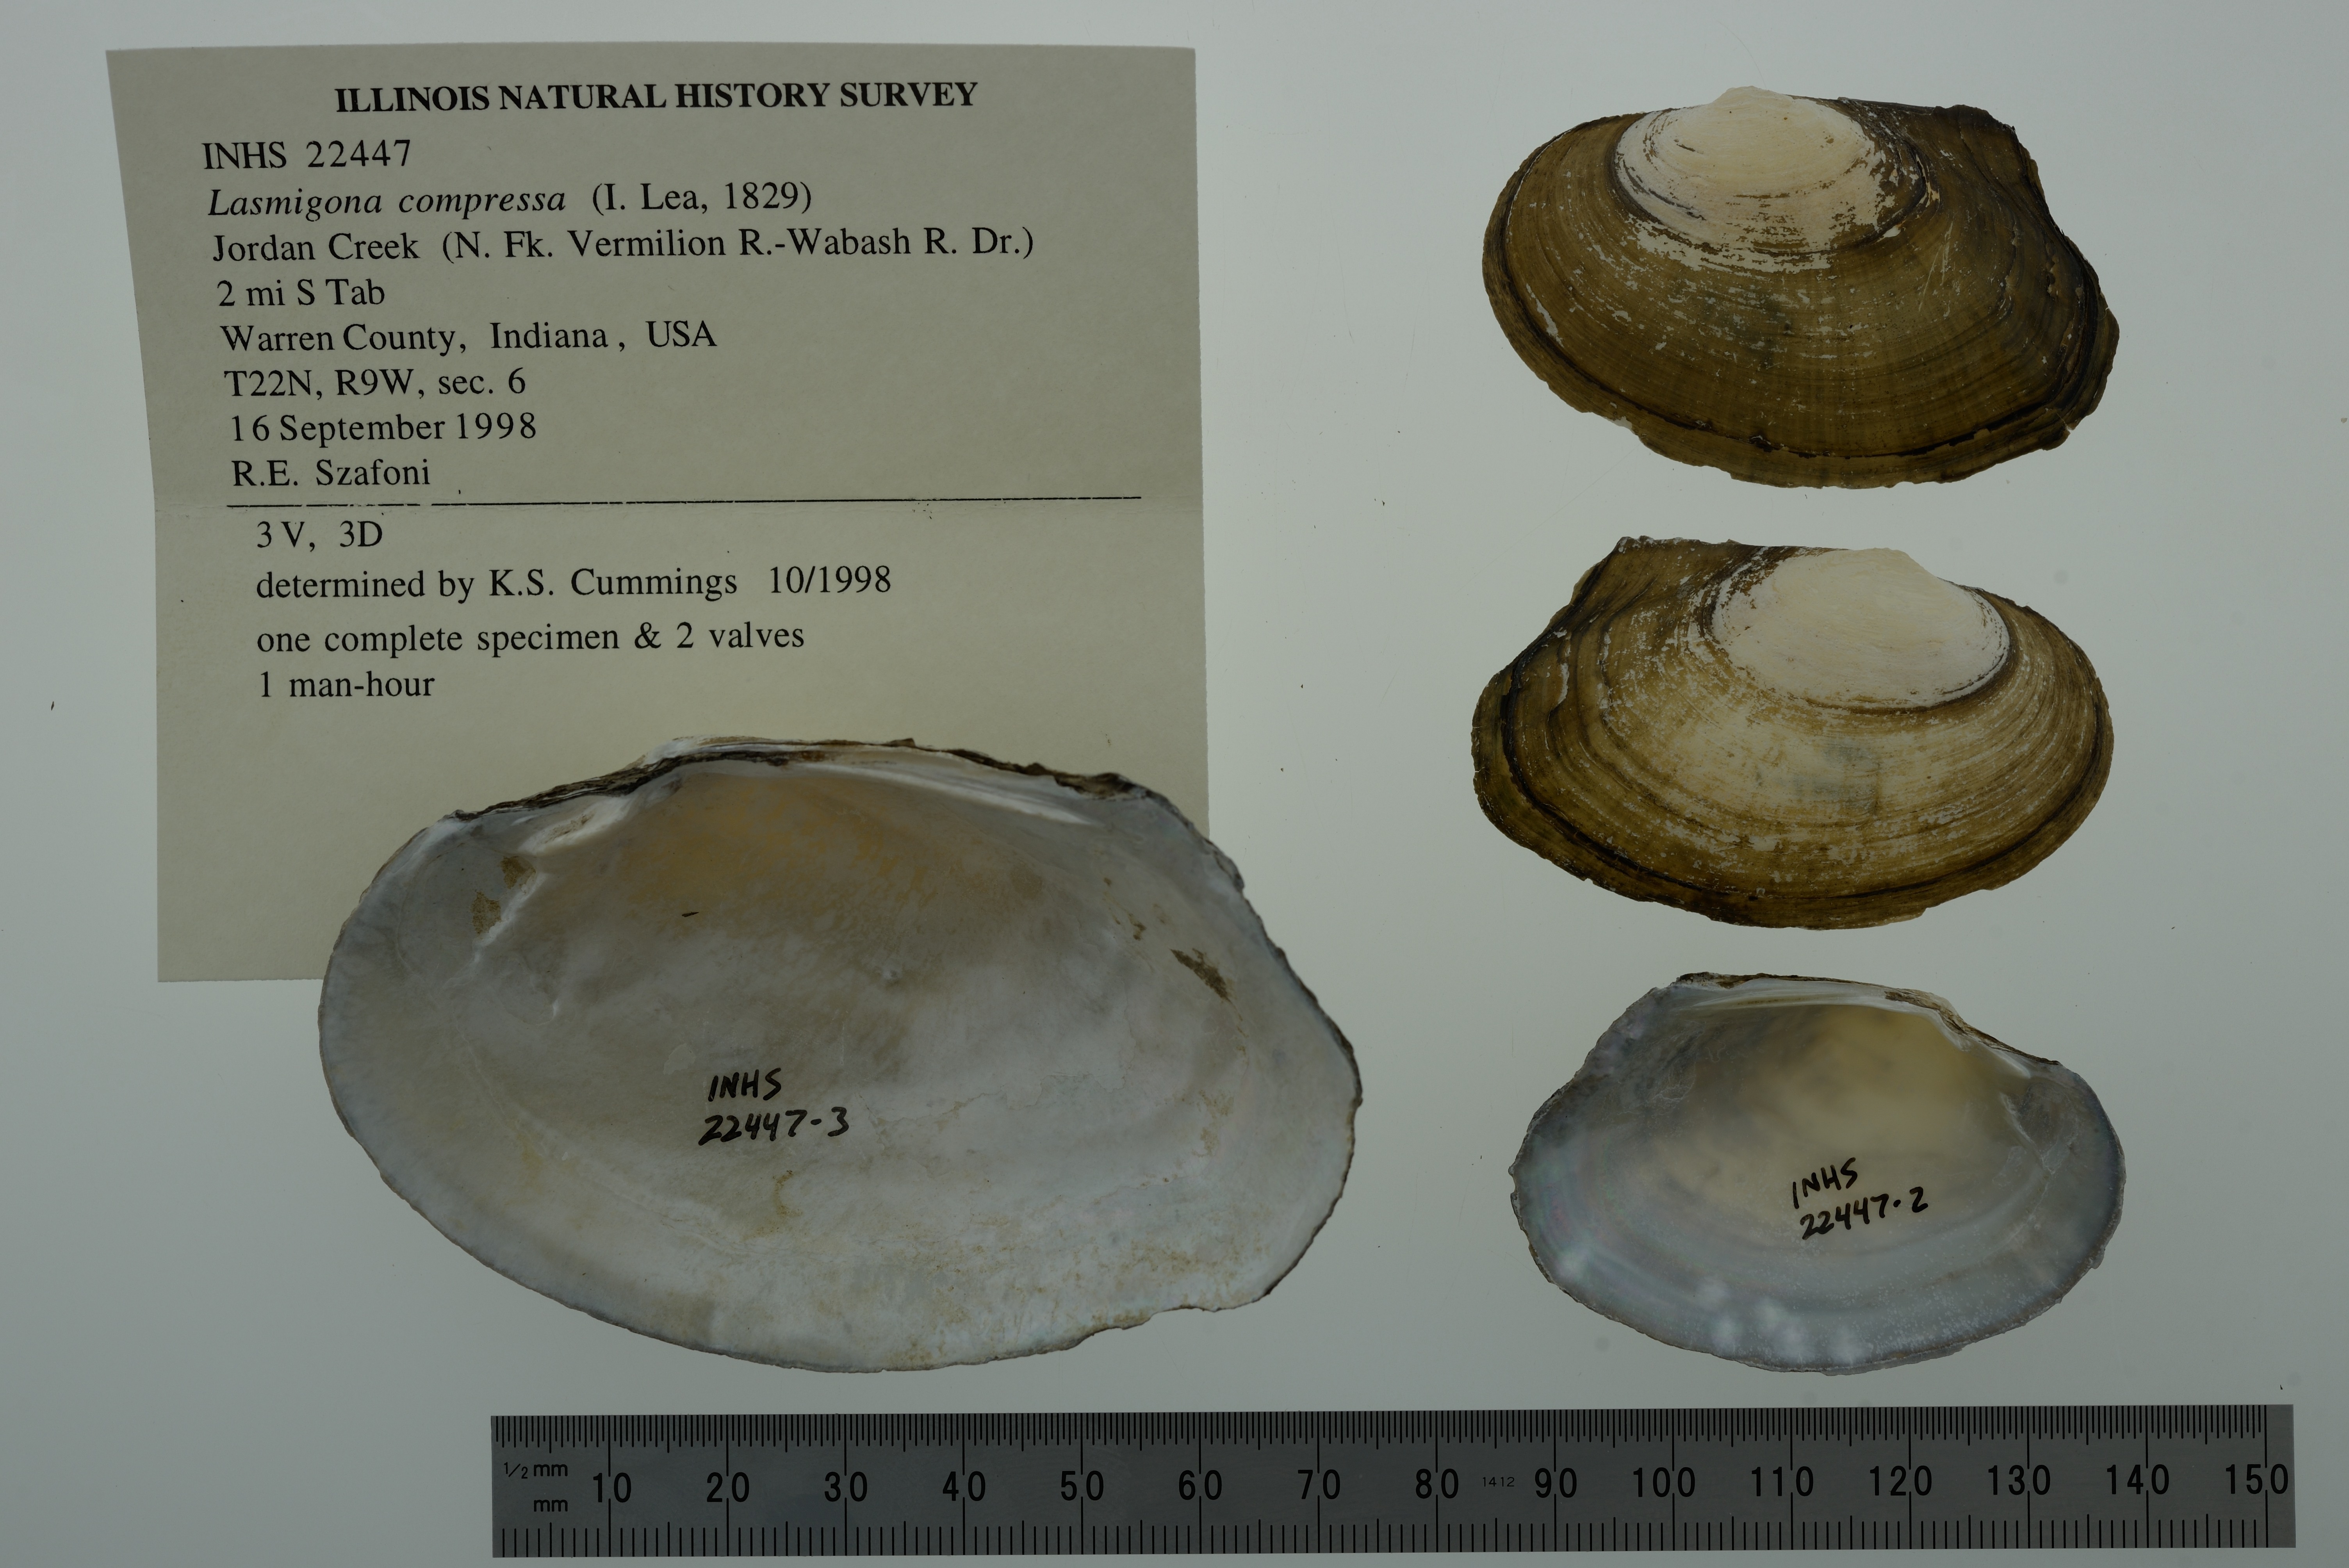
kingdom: Animalia
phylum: Mollusca
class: Bivalvia
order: Unionida
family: Unionidae
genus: Lasmigona
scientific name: Lasmigona compressa
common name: Creek heelsplitter
